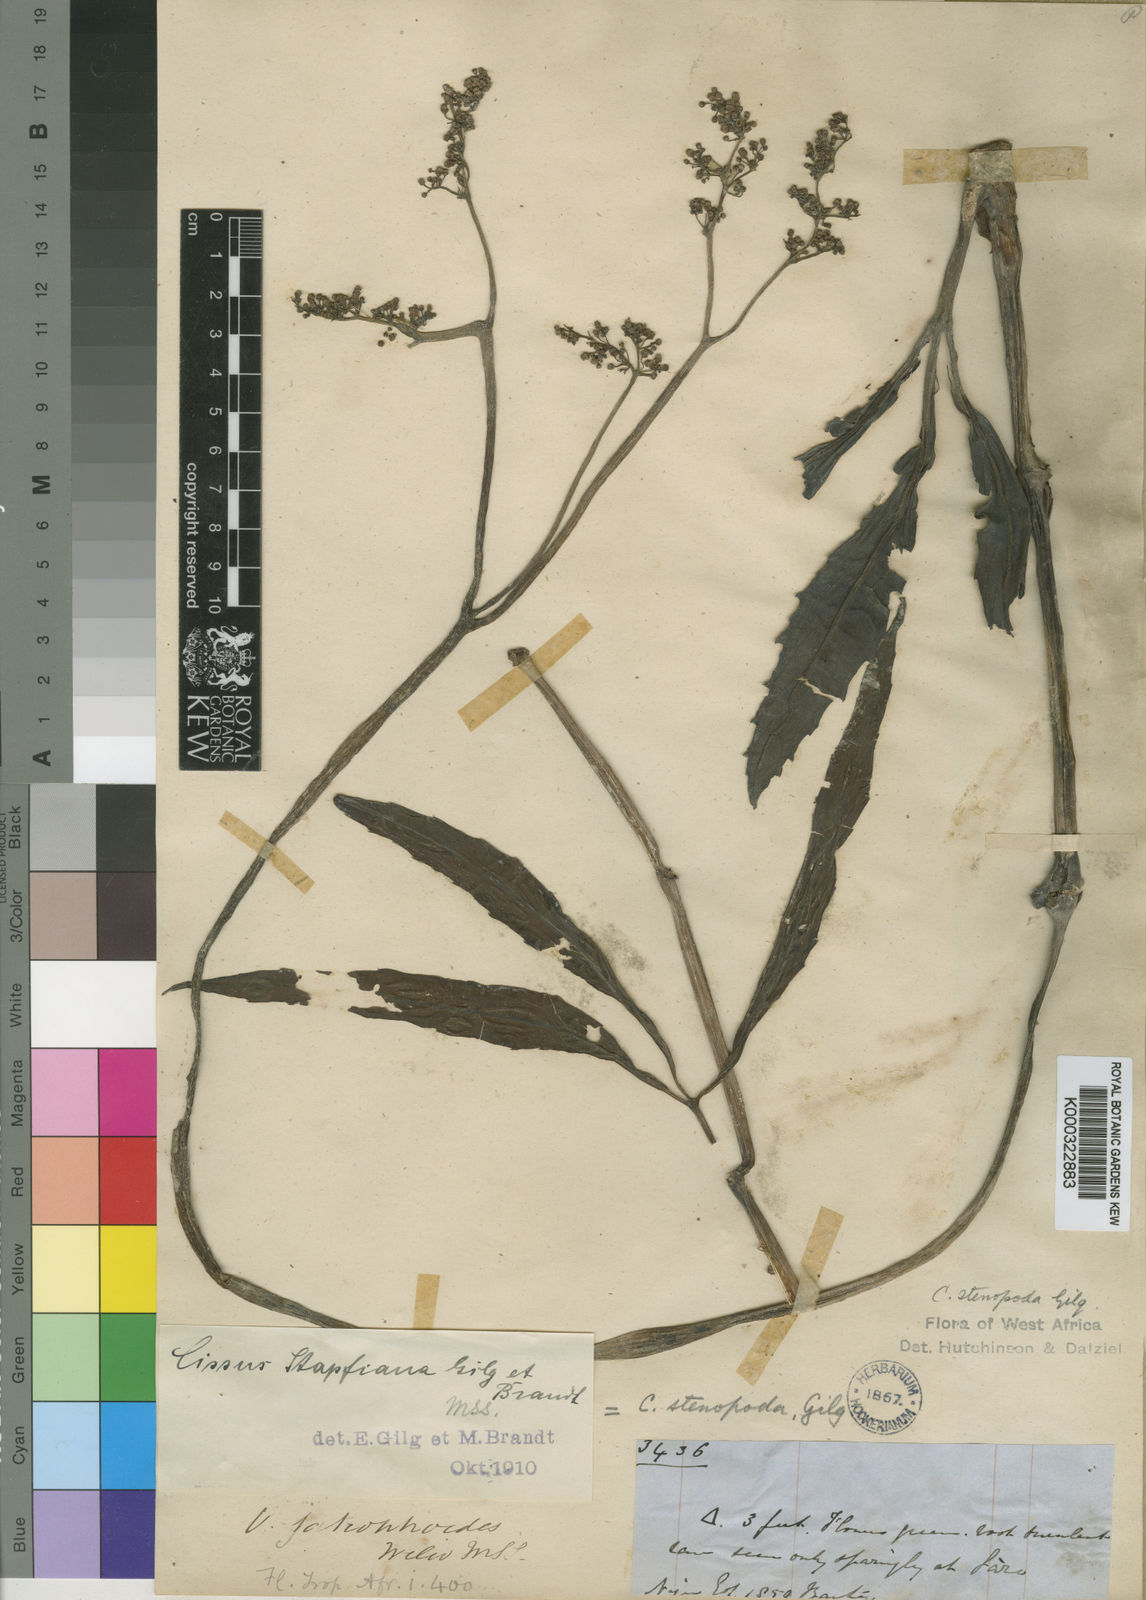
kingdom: Plantae
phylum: Tracheophyta
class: Magnoliopsida
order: Vitales
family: Vitaceae
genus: Cyphostemma
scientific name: Cyphostemma junceum
